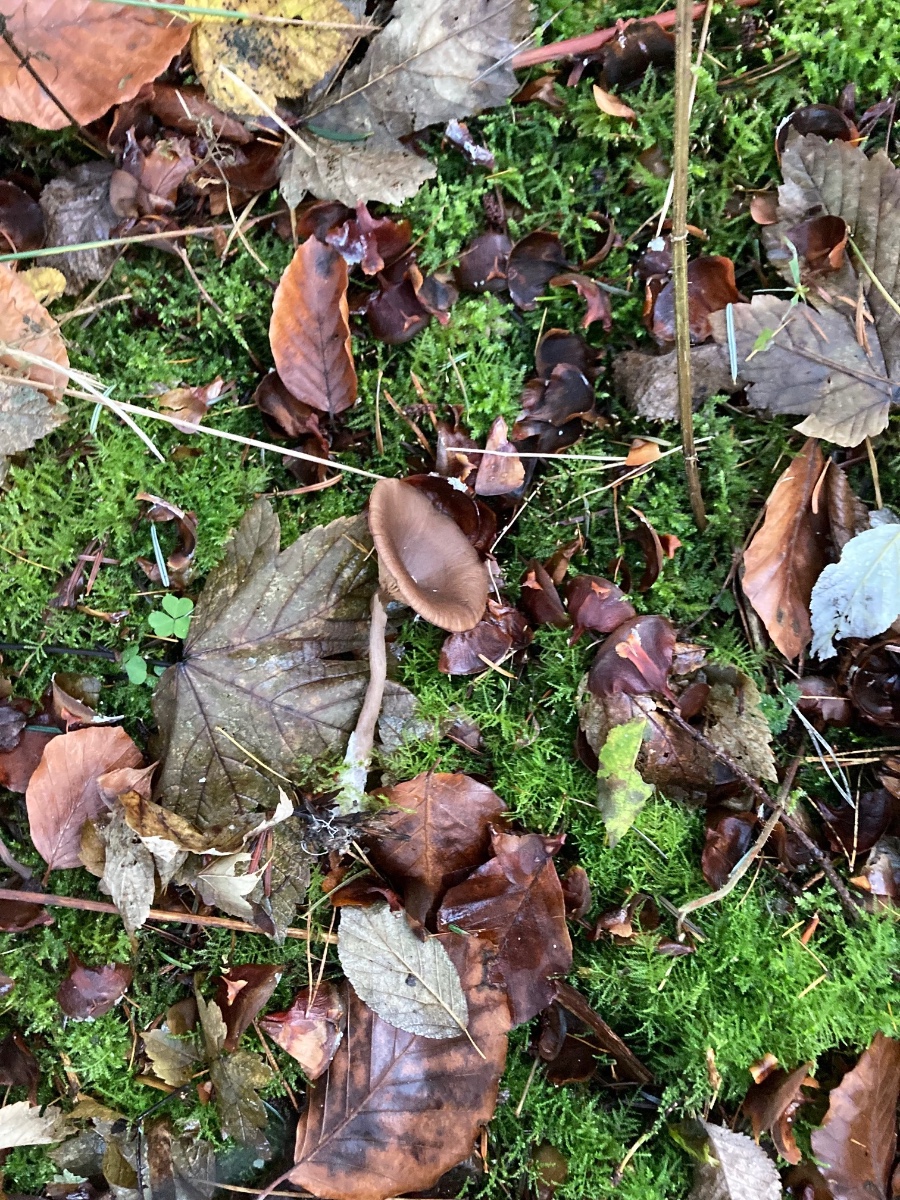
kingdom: Fungi
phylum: Basidiomycota
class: Agaricomycetes
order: Agaricales
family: Pseudoclitocybaceae
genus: Pseudoclitocybe
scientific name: Pseudoclitocybe cyathiformis
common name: almindelig bægertragthat
